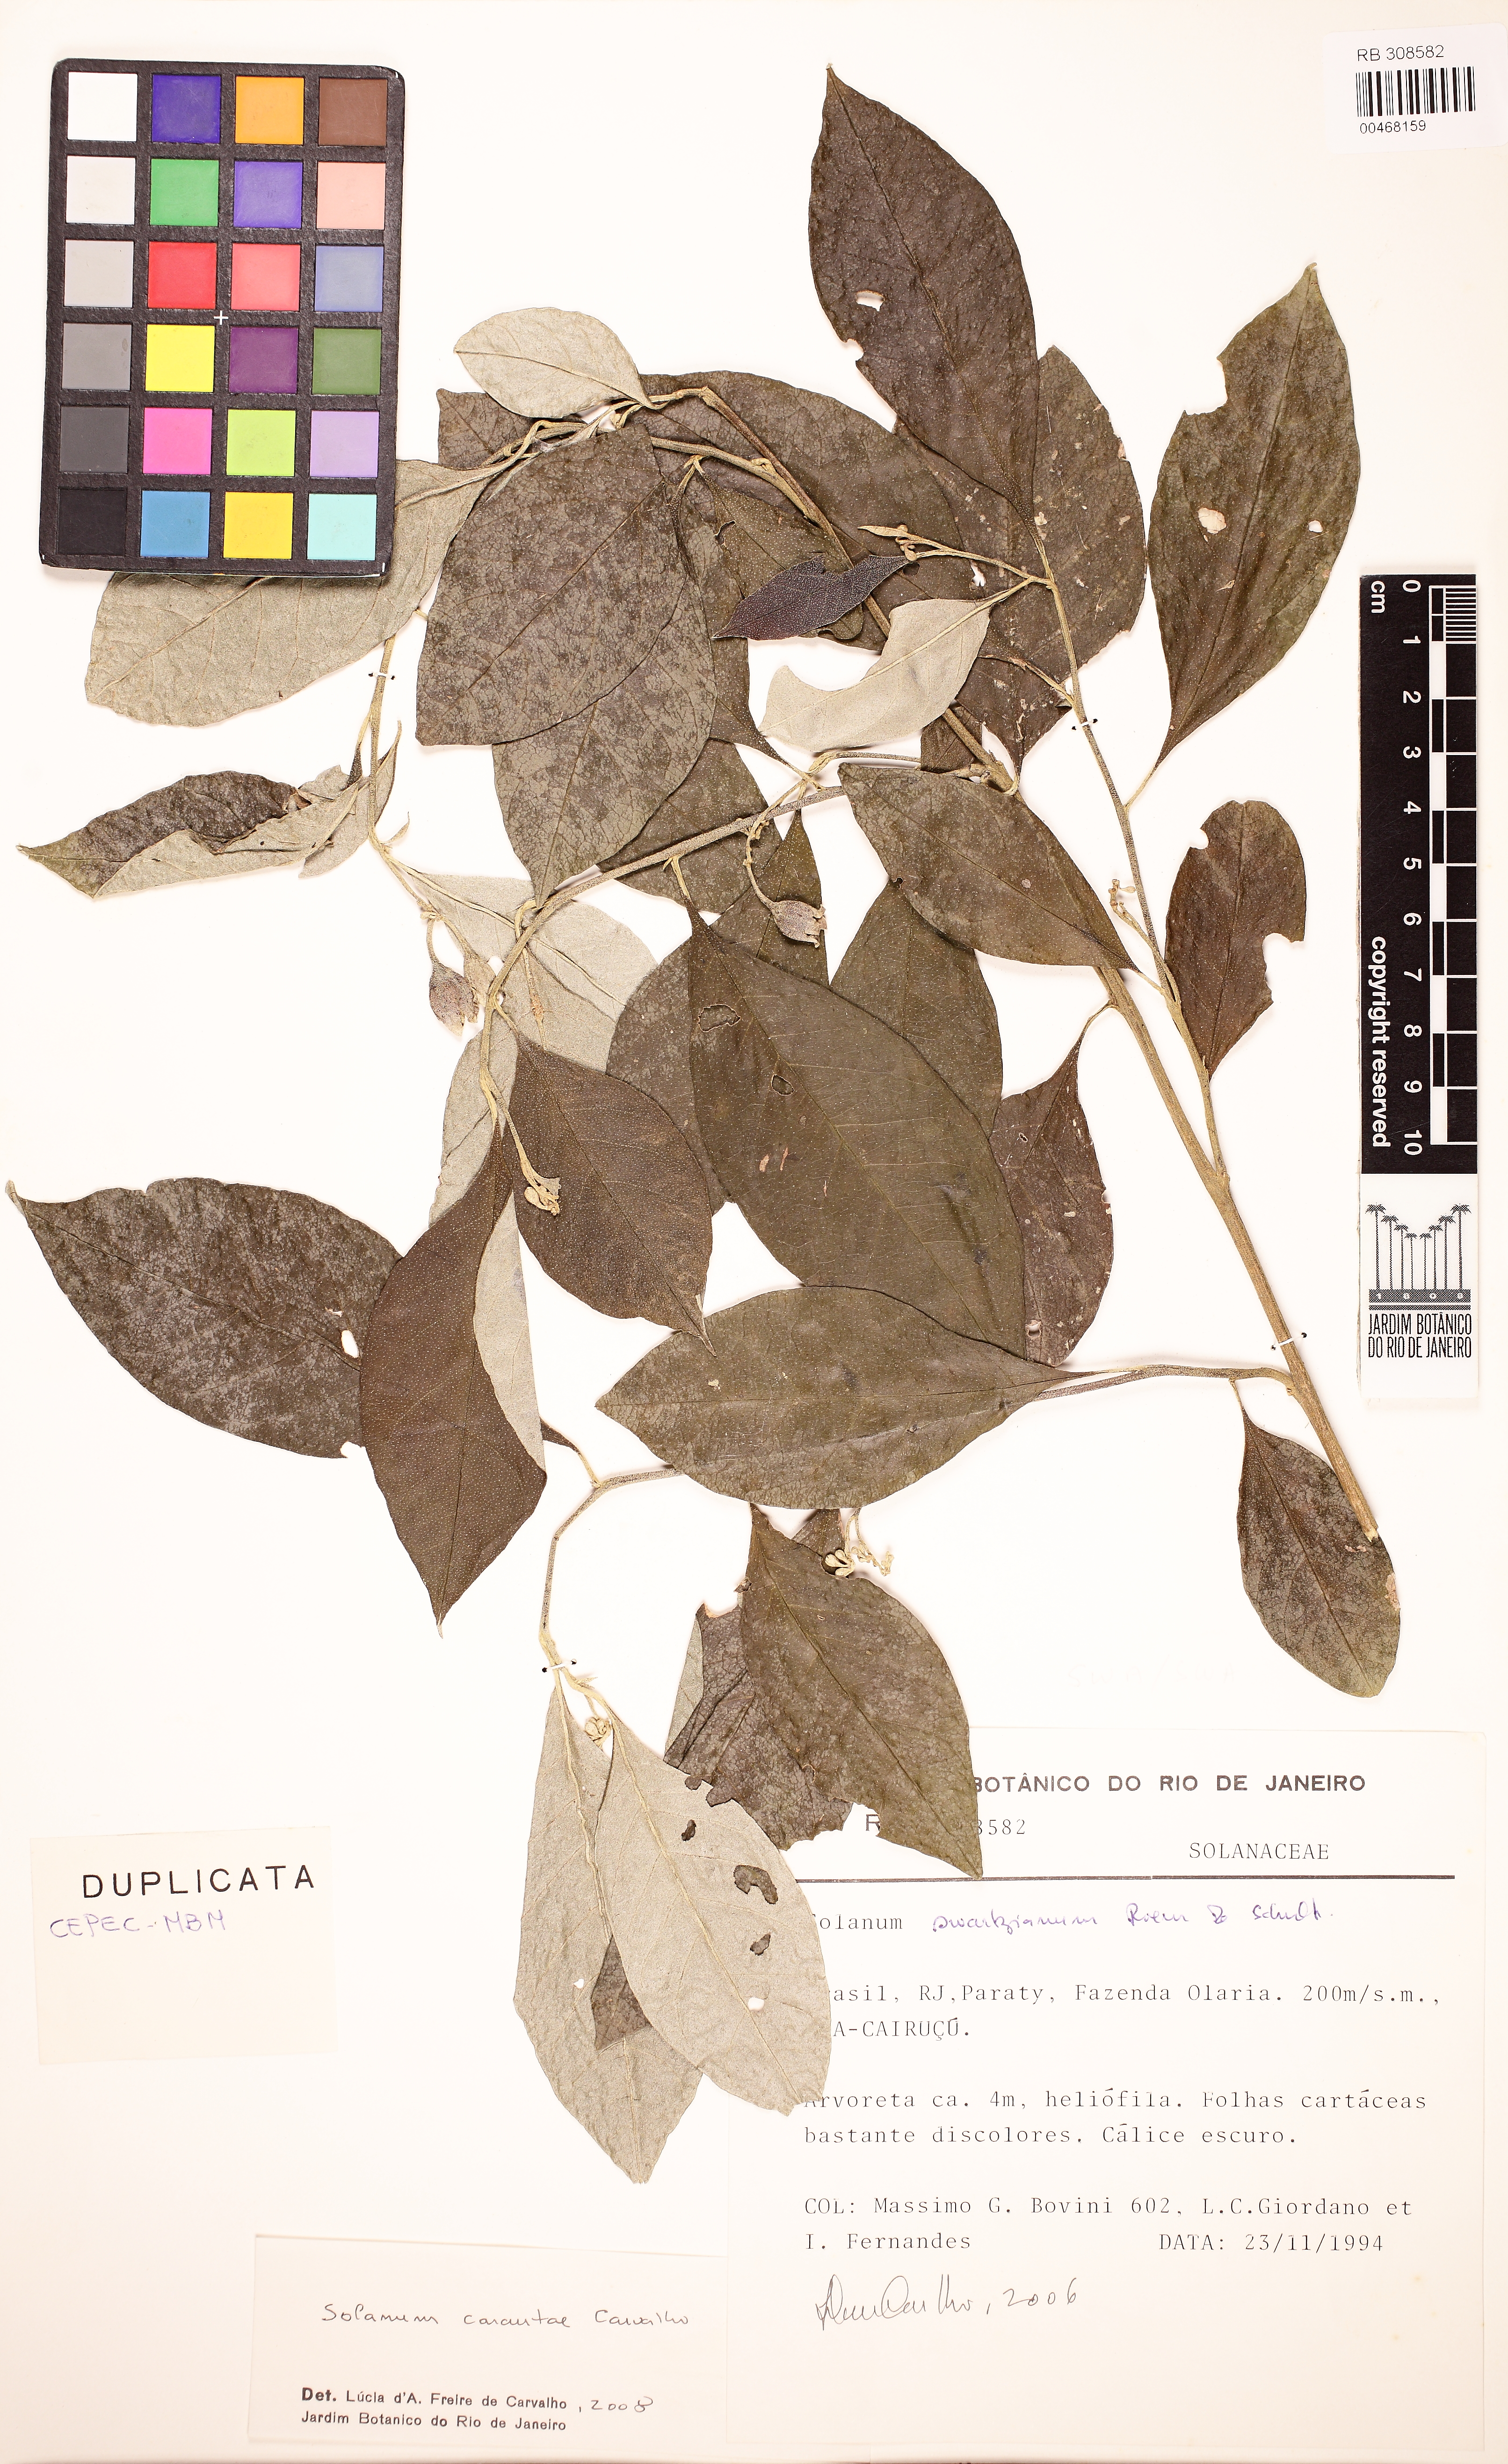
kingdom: Plantae
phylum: Tracheophyta
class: Magnoliopsida
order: Solanales
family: Solanaceae
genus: Solanum
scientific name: Solanum carautae
